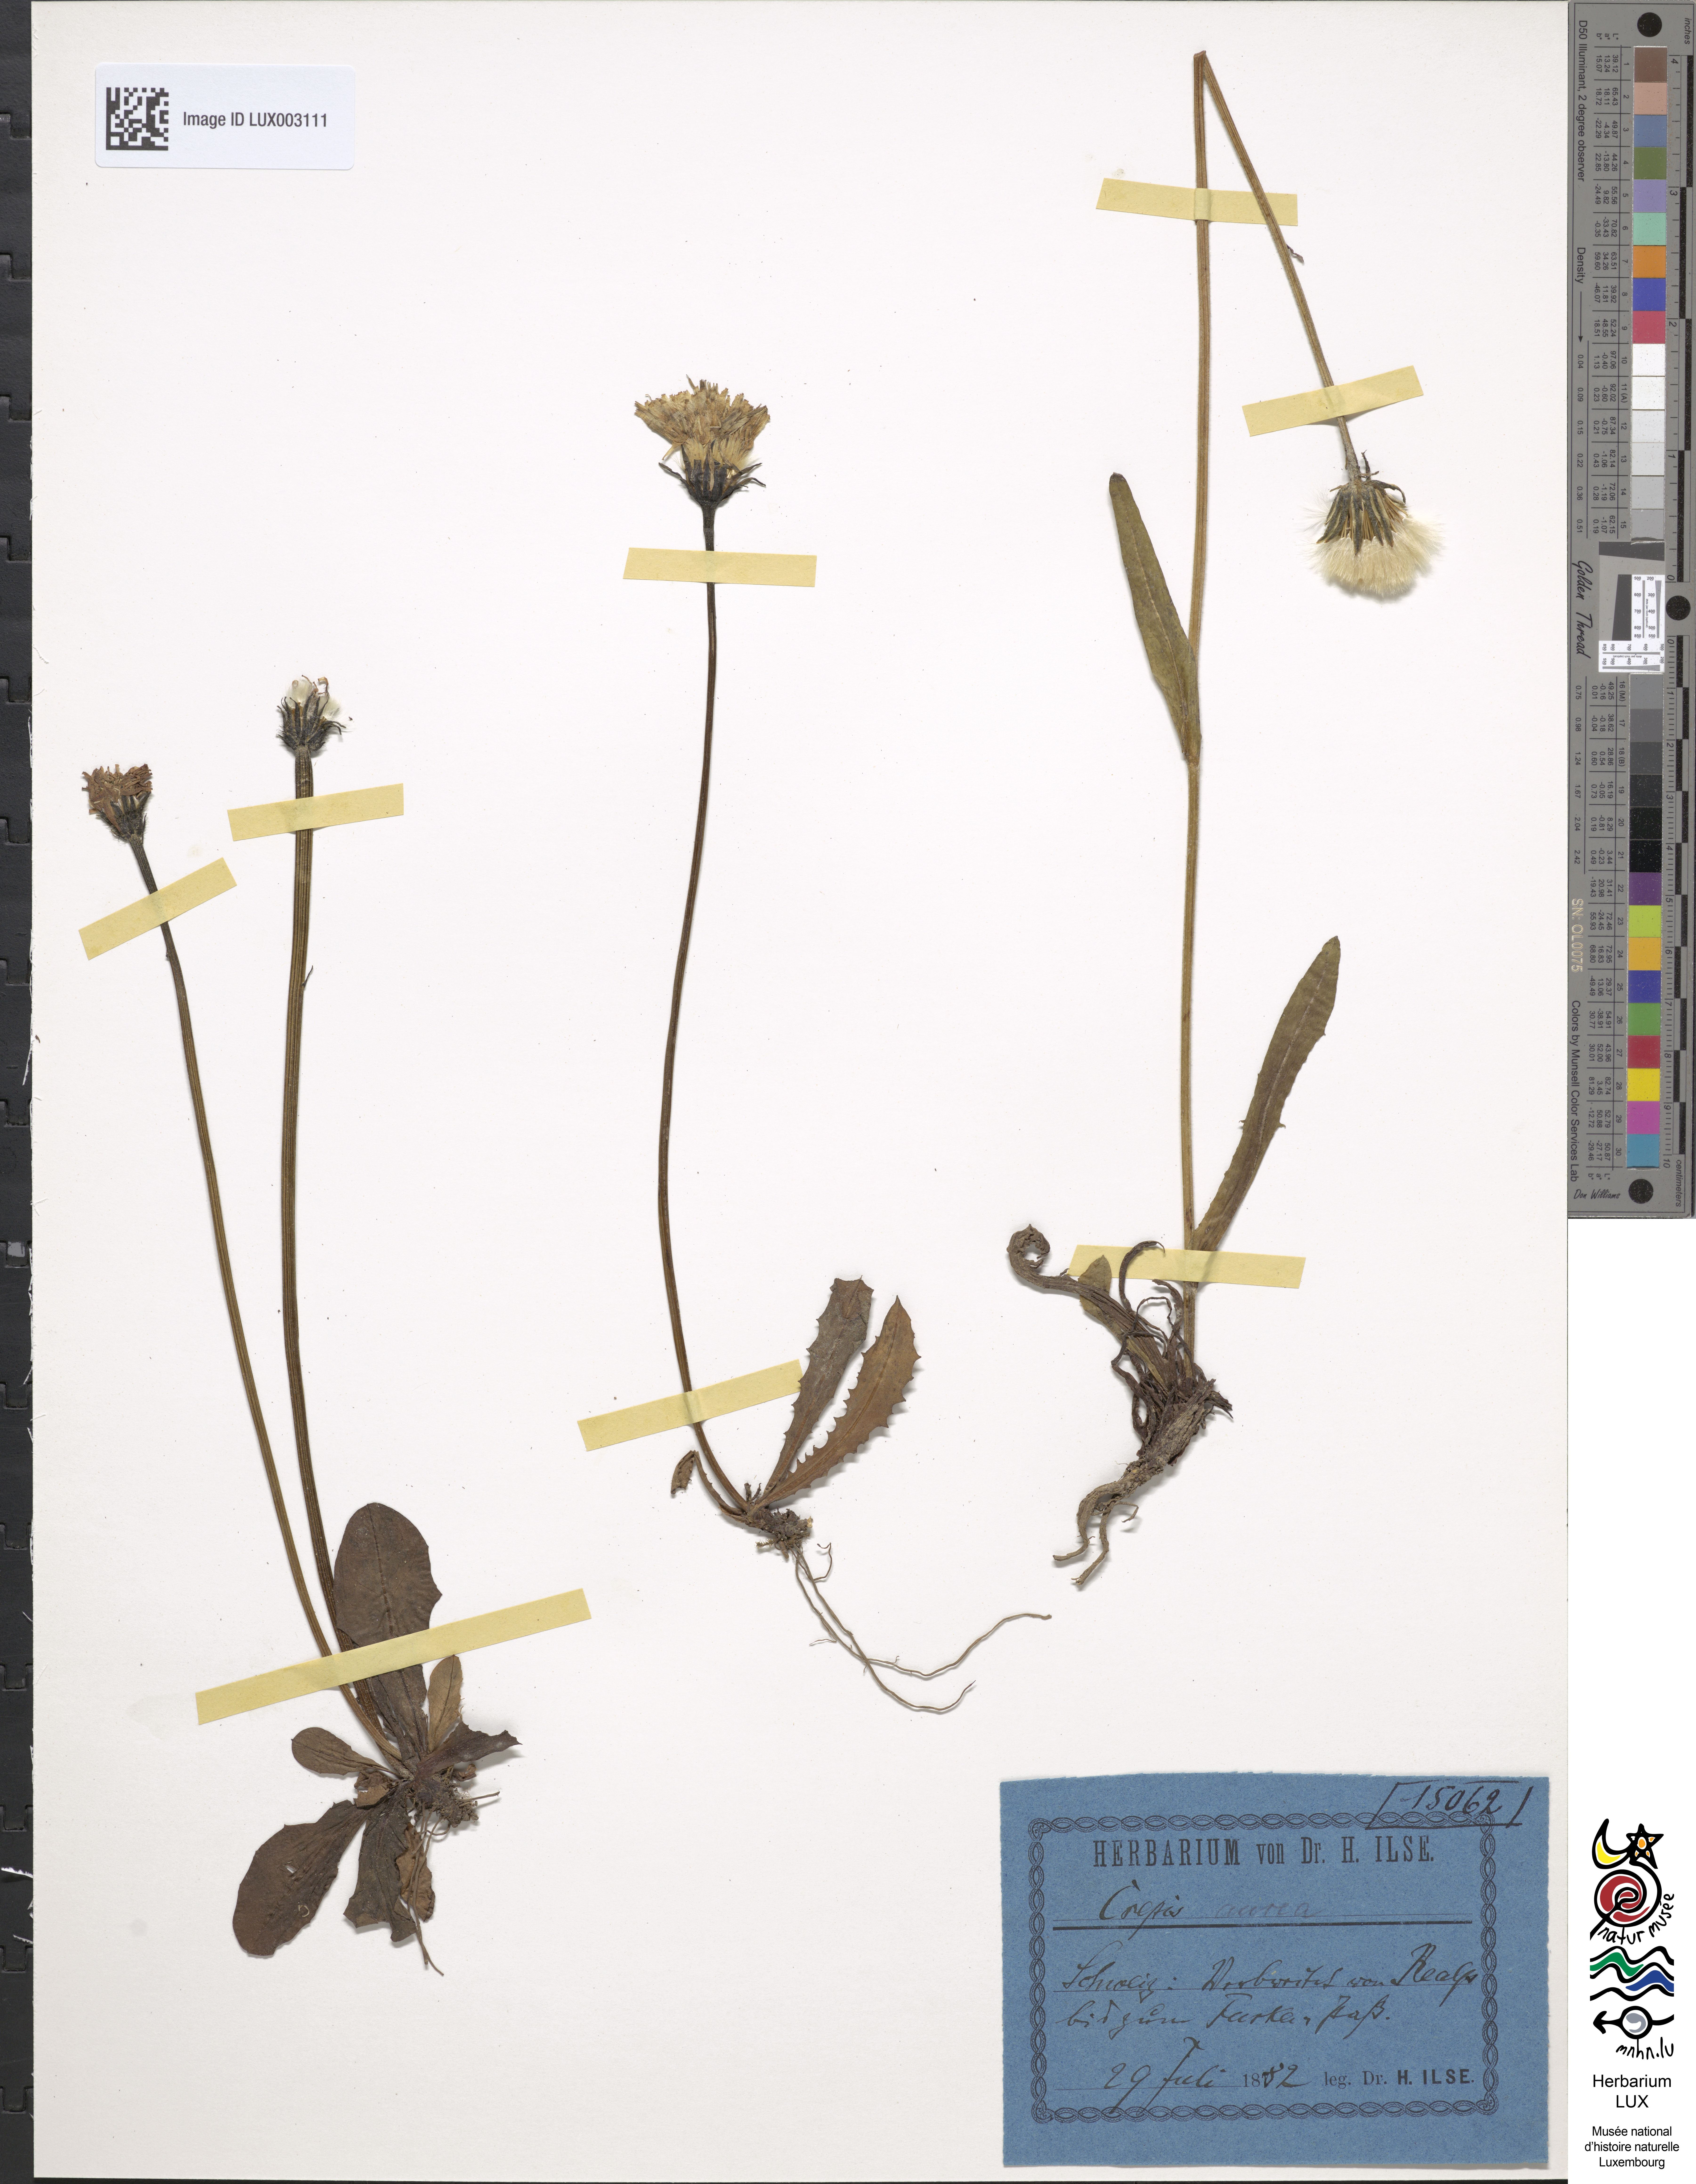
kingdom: Plantae
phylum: Tracheophyta
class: Magnoliopsida
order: Asterales
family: Asteraceae
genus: Crepis
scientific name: Crepis aurea
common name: Golden hawk's-beard
